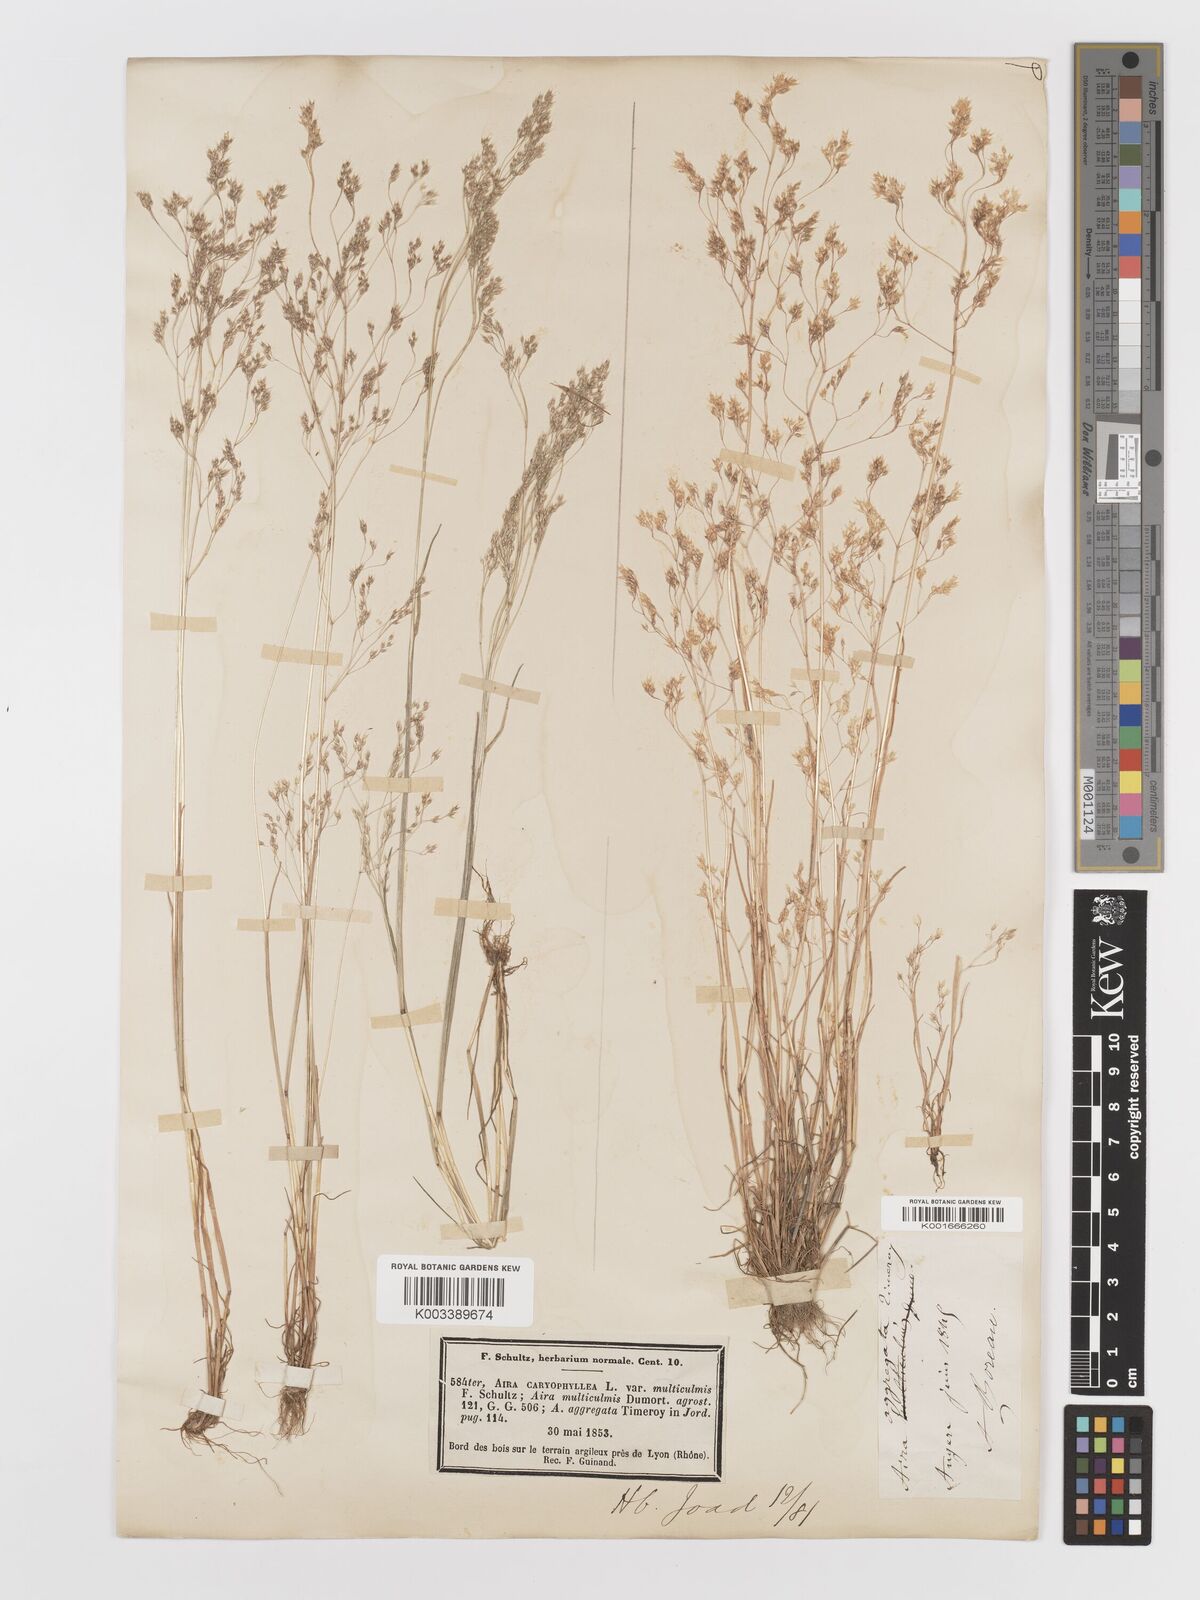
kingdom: Plantae
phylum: Tracheophyta
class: Liliopsida
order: Poales
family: Poaceae
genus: Aira
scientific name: Aira caryophyllea
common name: Silver hairgrass
